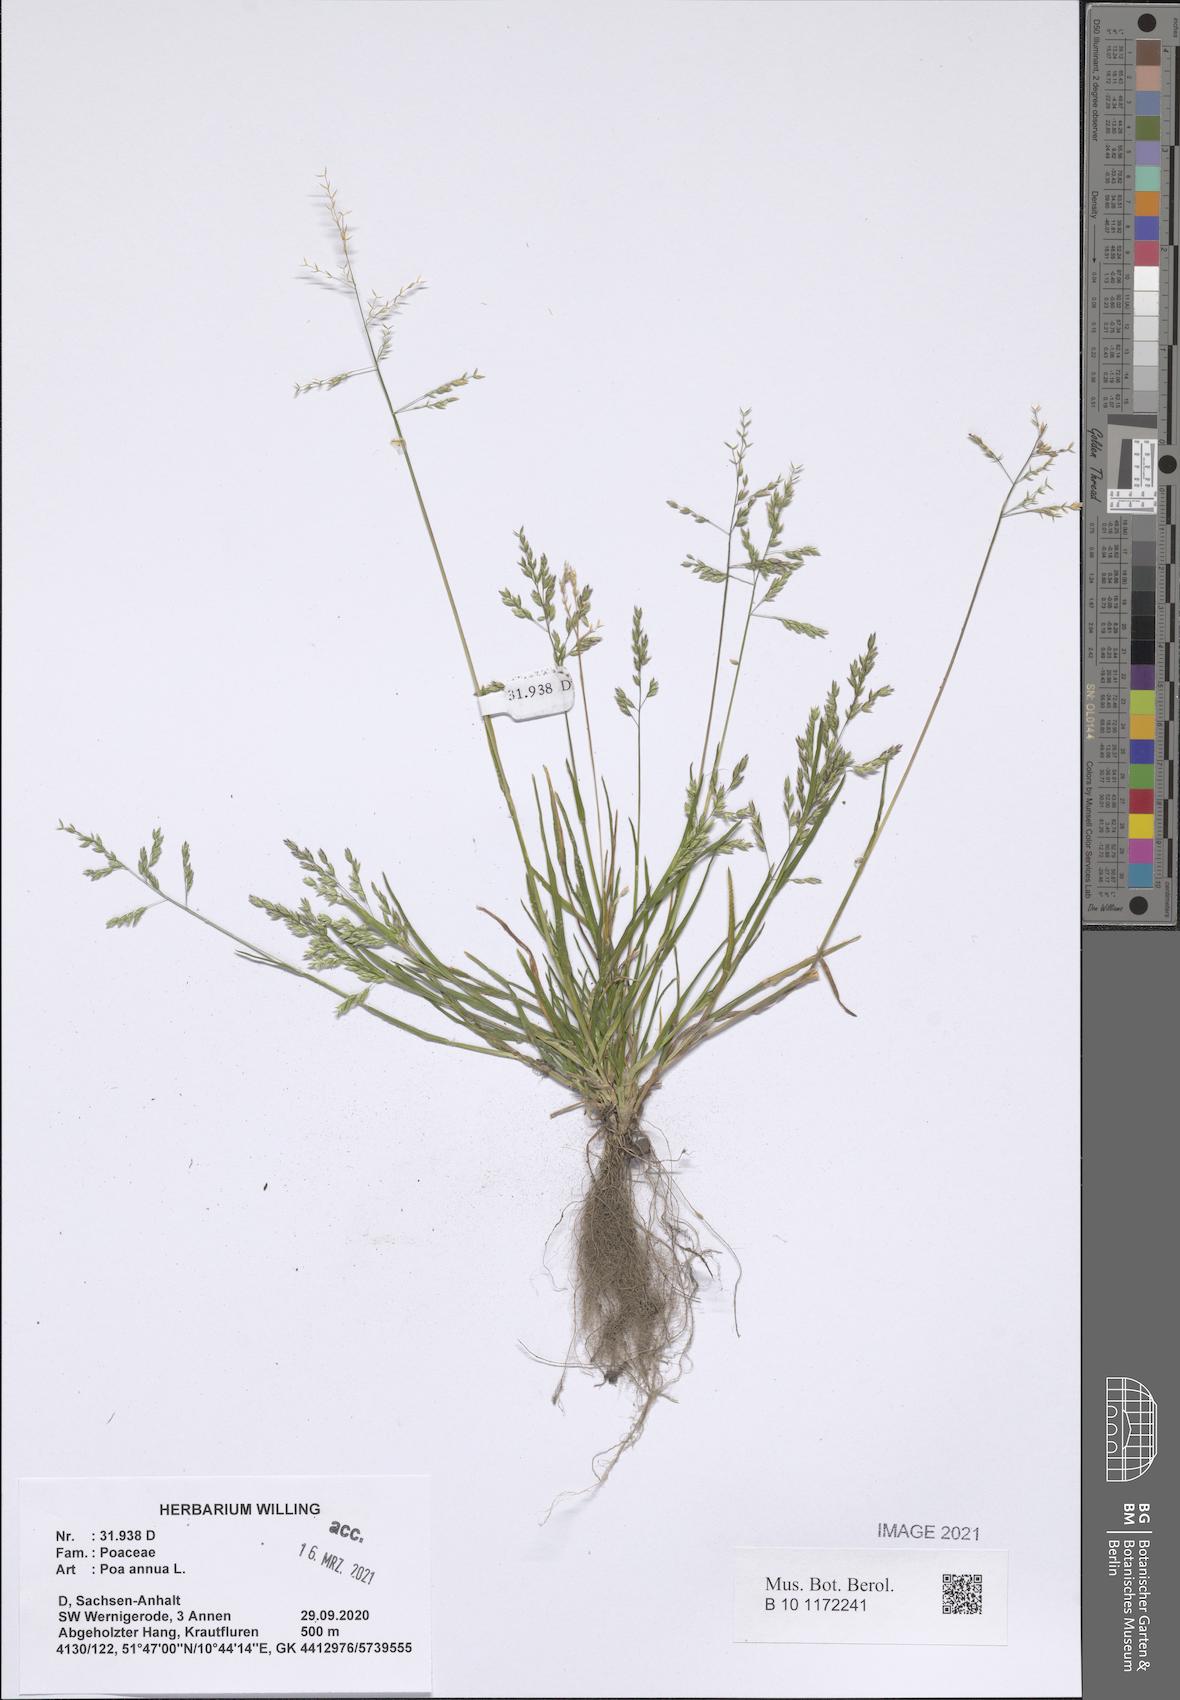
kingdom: Plantae
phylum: Tracheophyta
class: Liliopsida
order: Poales
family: Poaceae
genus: Poa
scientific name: Poa annua
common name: Annual bluegrass
